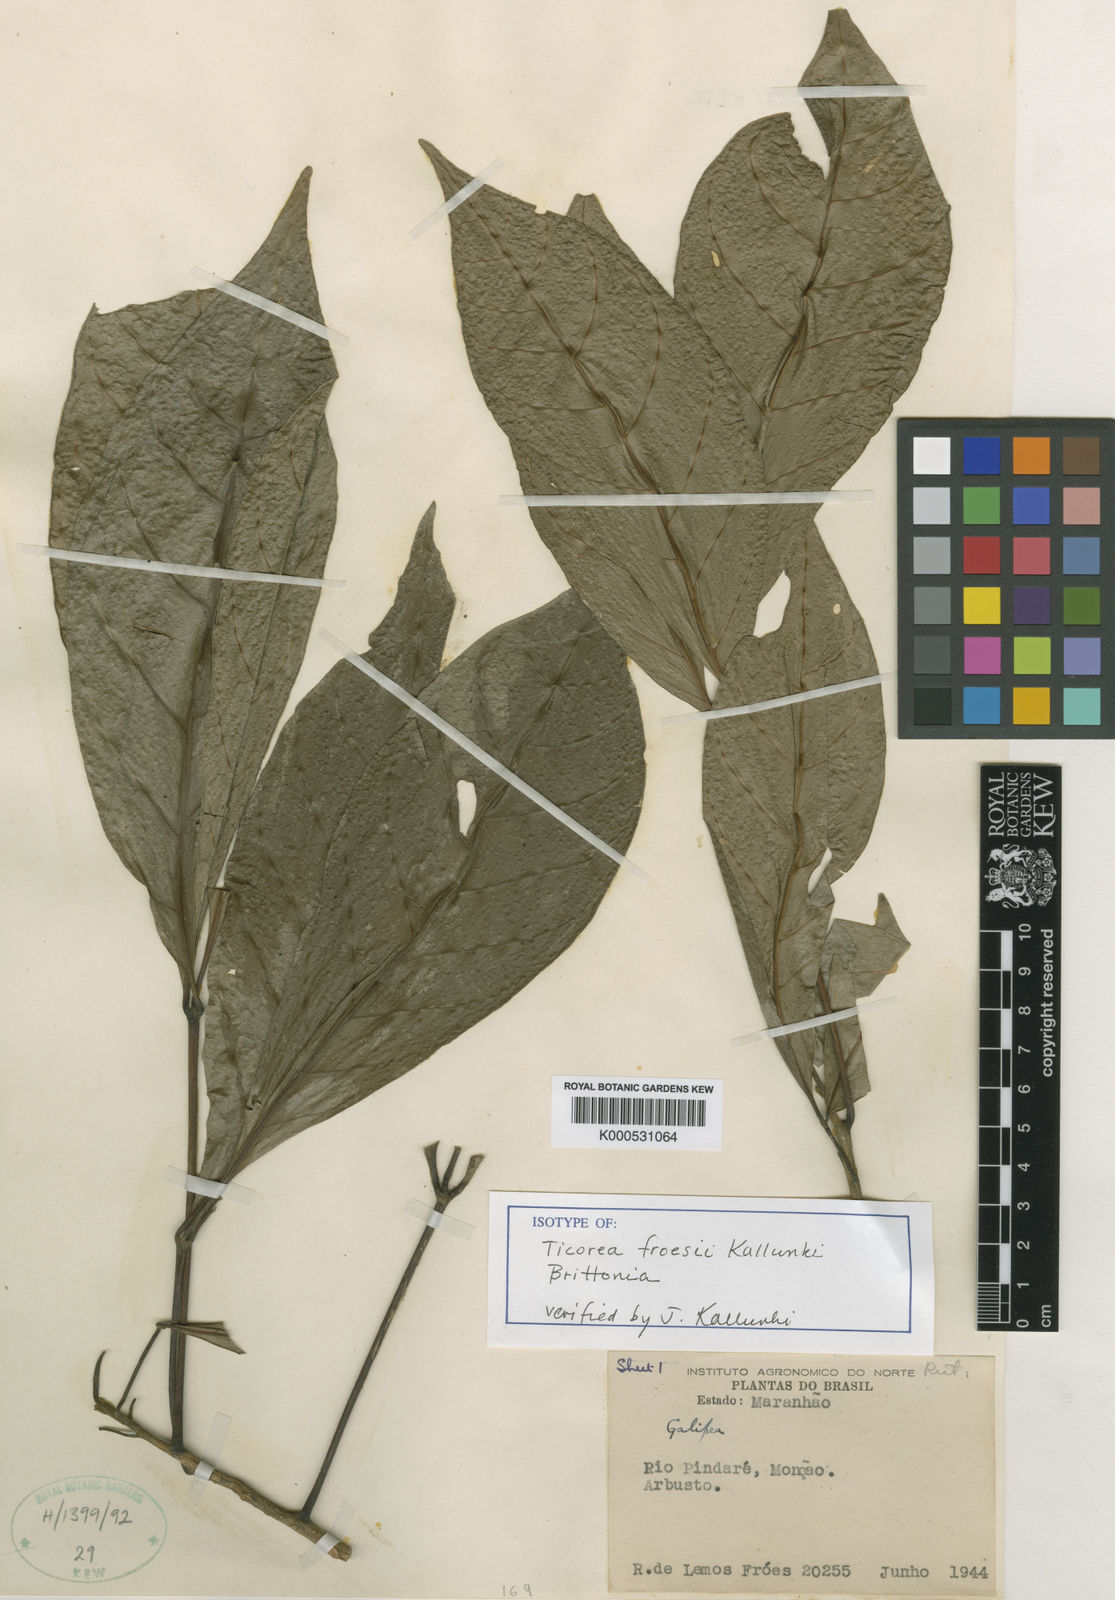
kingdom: Plantae
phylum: Tracheophyta
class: Magnoliopsida
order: Sapindales
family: Rutaceae
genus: Ticorea
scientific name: Ticorea froesii
